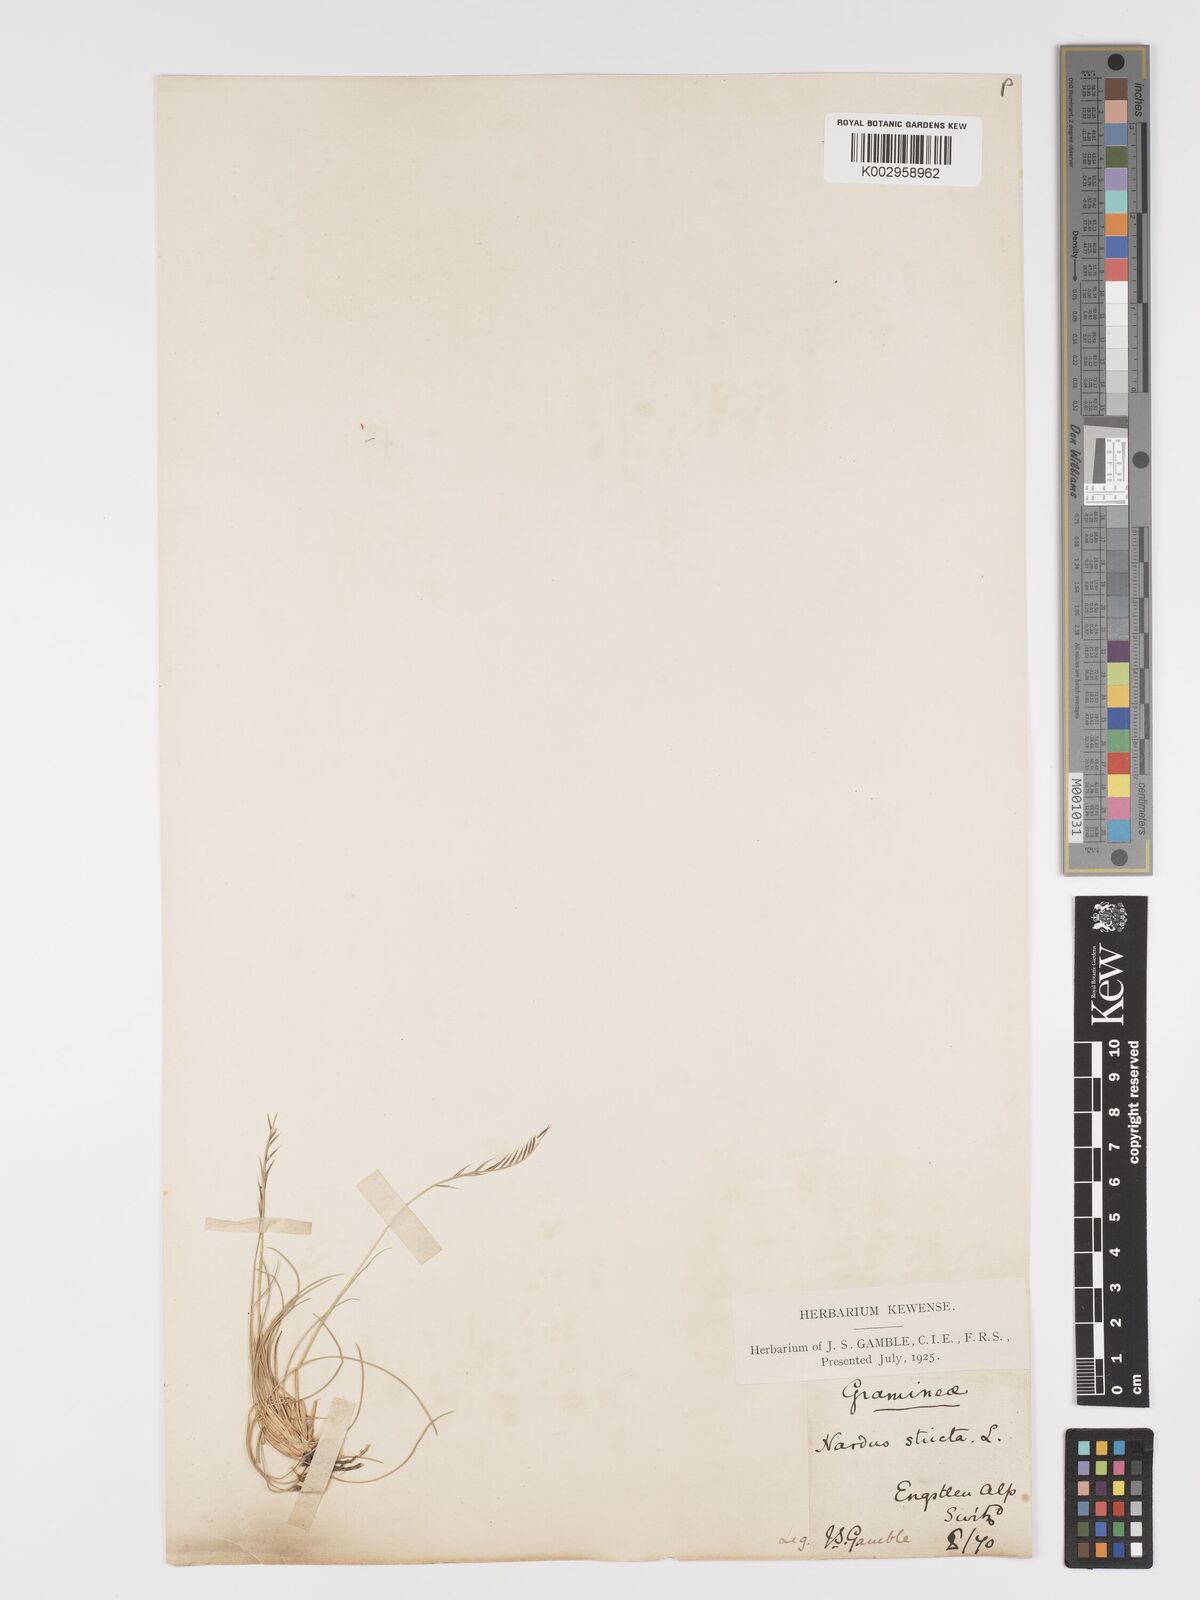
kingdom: Plantae
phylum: Tracheophyta
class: Liliopsida
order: Poales
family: Poaceae
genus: Nardus
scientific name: Nardus stricta
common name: Mat-grass
